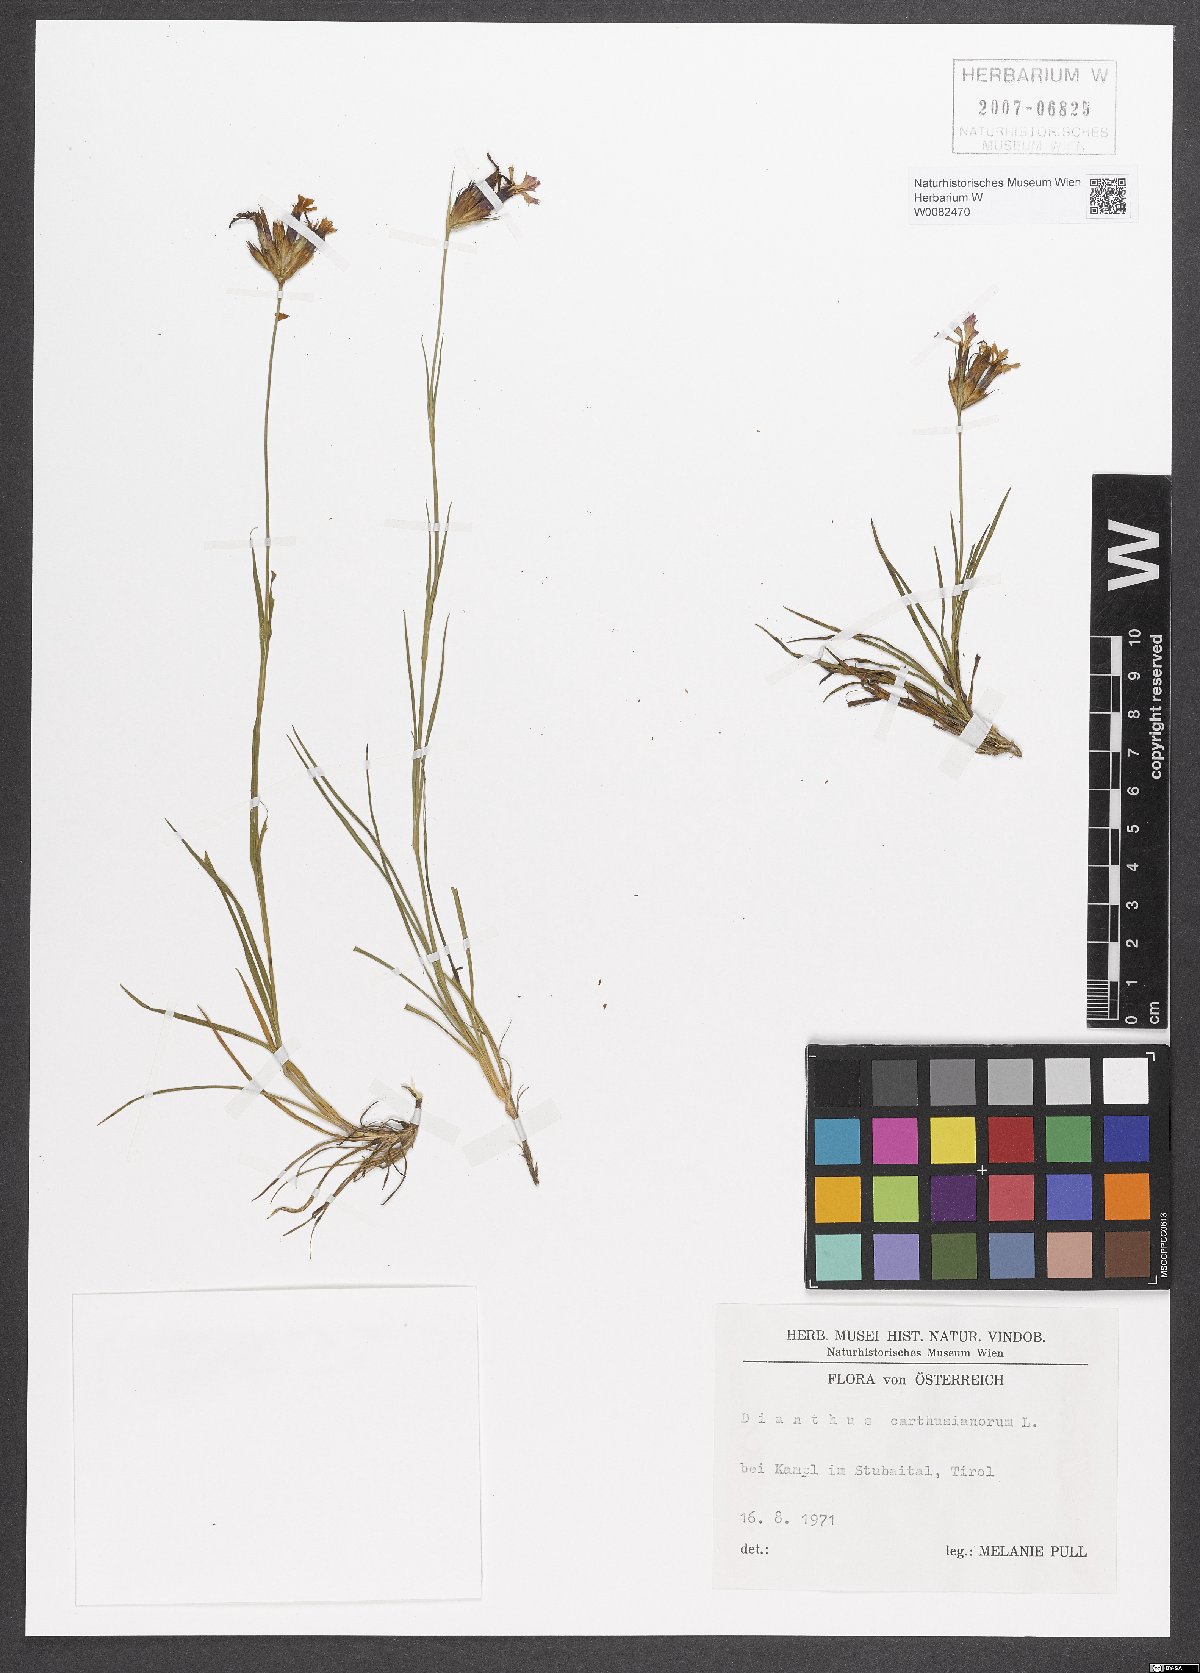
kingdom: Plantae
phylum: Tracheophyta
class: Magnoliopsida
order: Caryophyllales
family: Caryophyllaceae
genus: Dianthus
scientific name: Dianthus carthusianorum
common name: Carthusian pink
